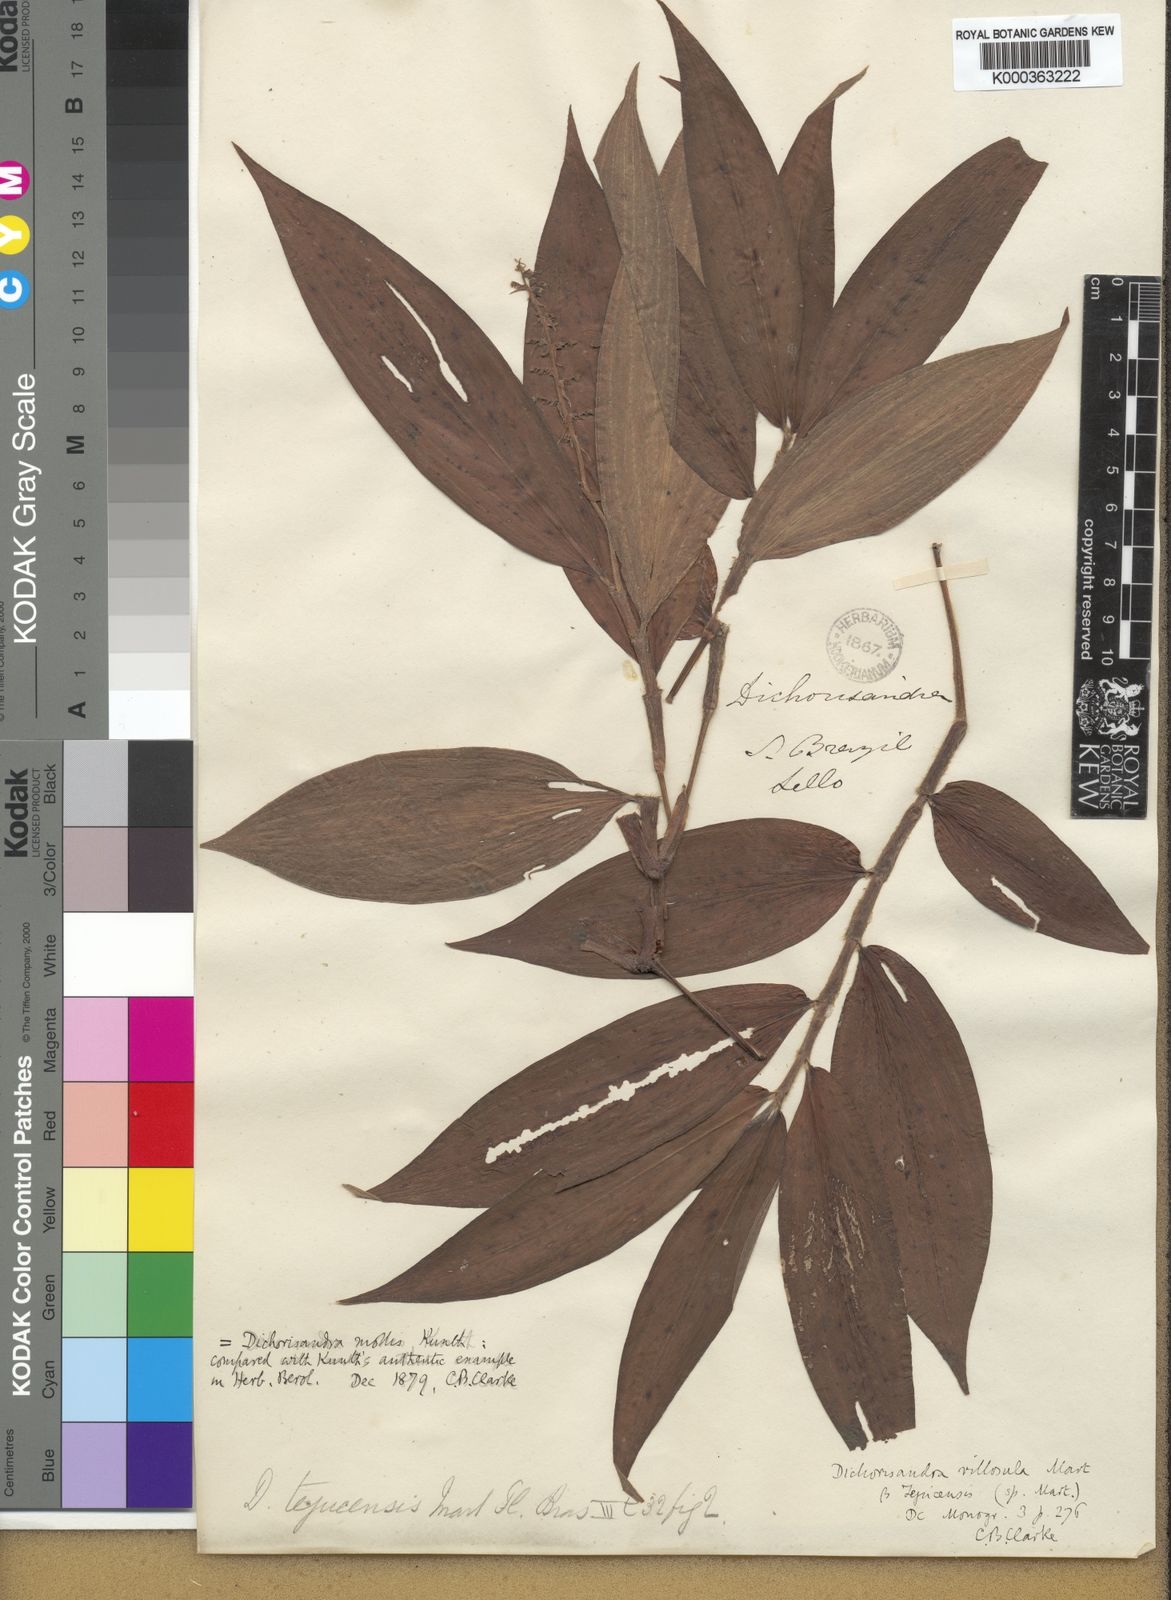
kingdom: Plantae
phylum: Tracheophyta
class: Liliopsida
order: Commelinales
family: Commelinaceae
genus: Dichorisandra
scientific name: Dichorisandra tejucensis
